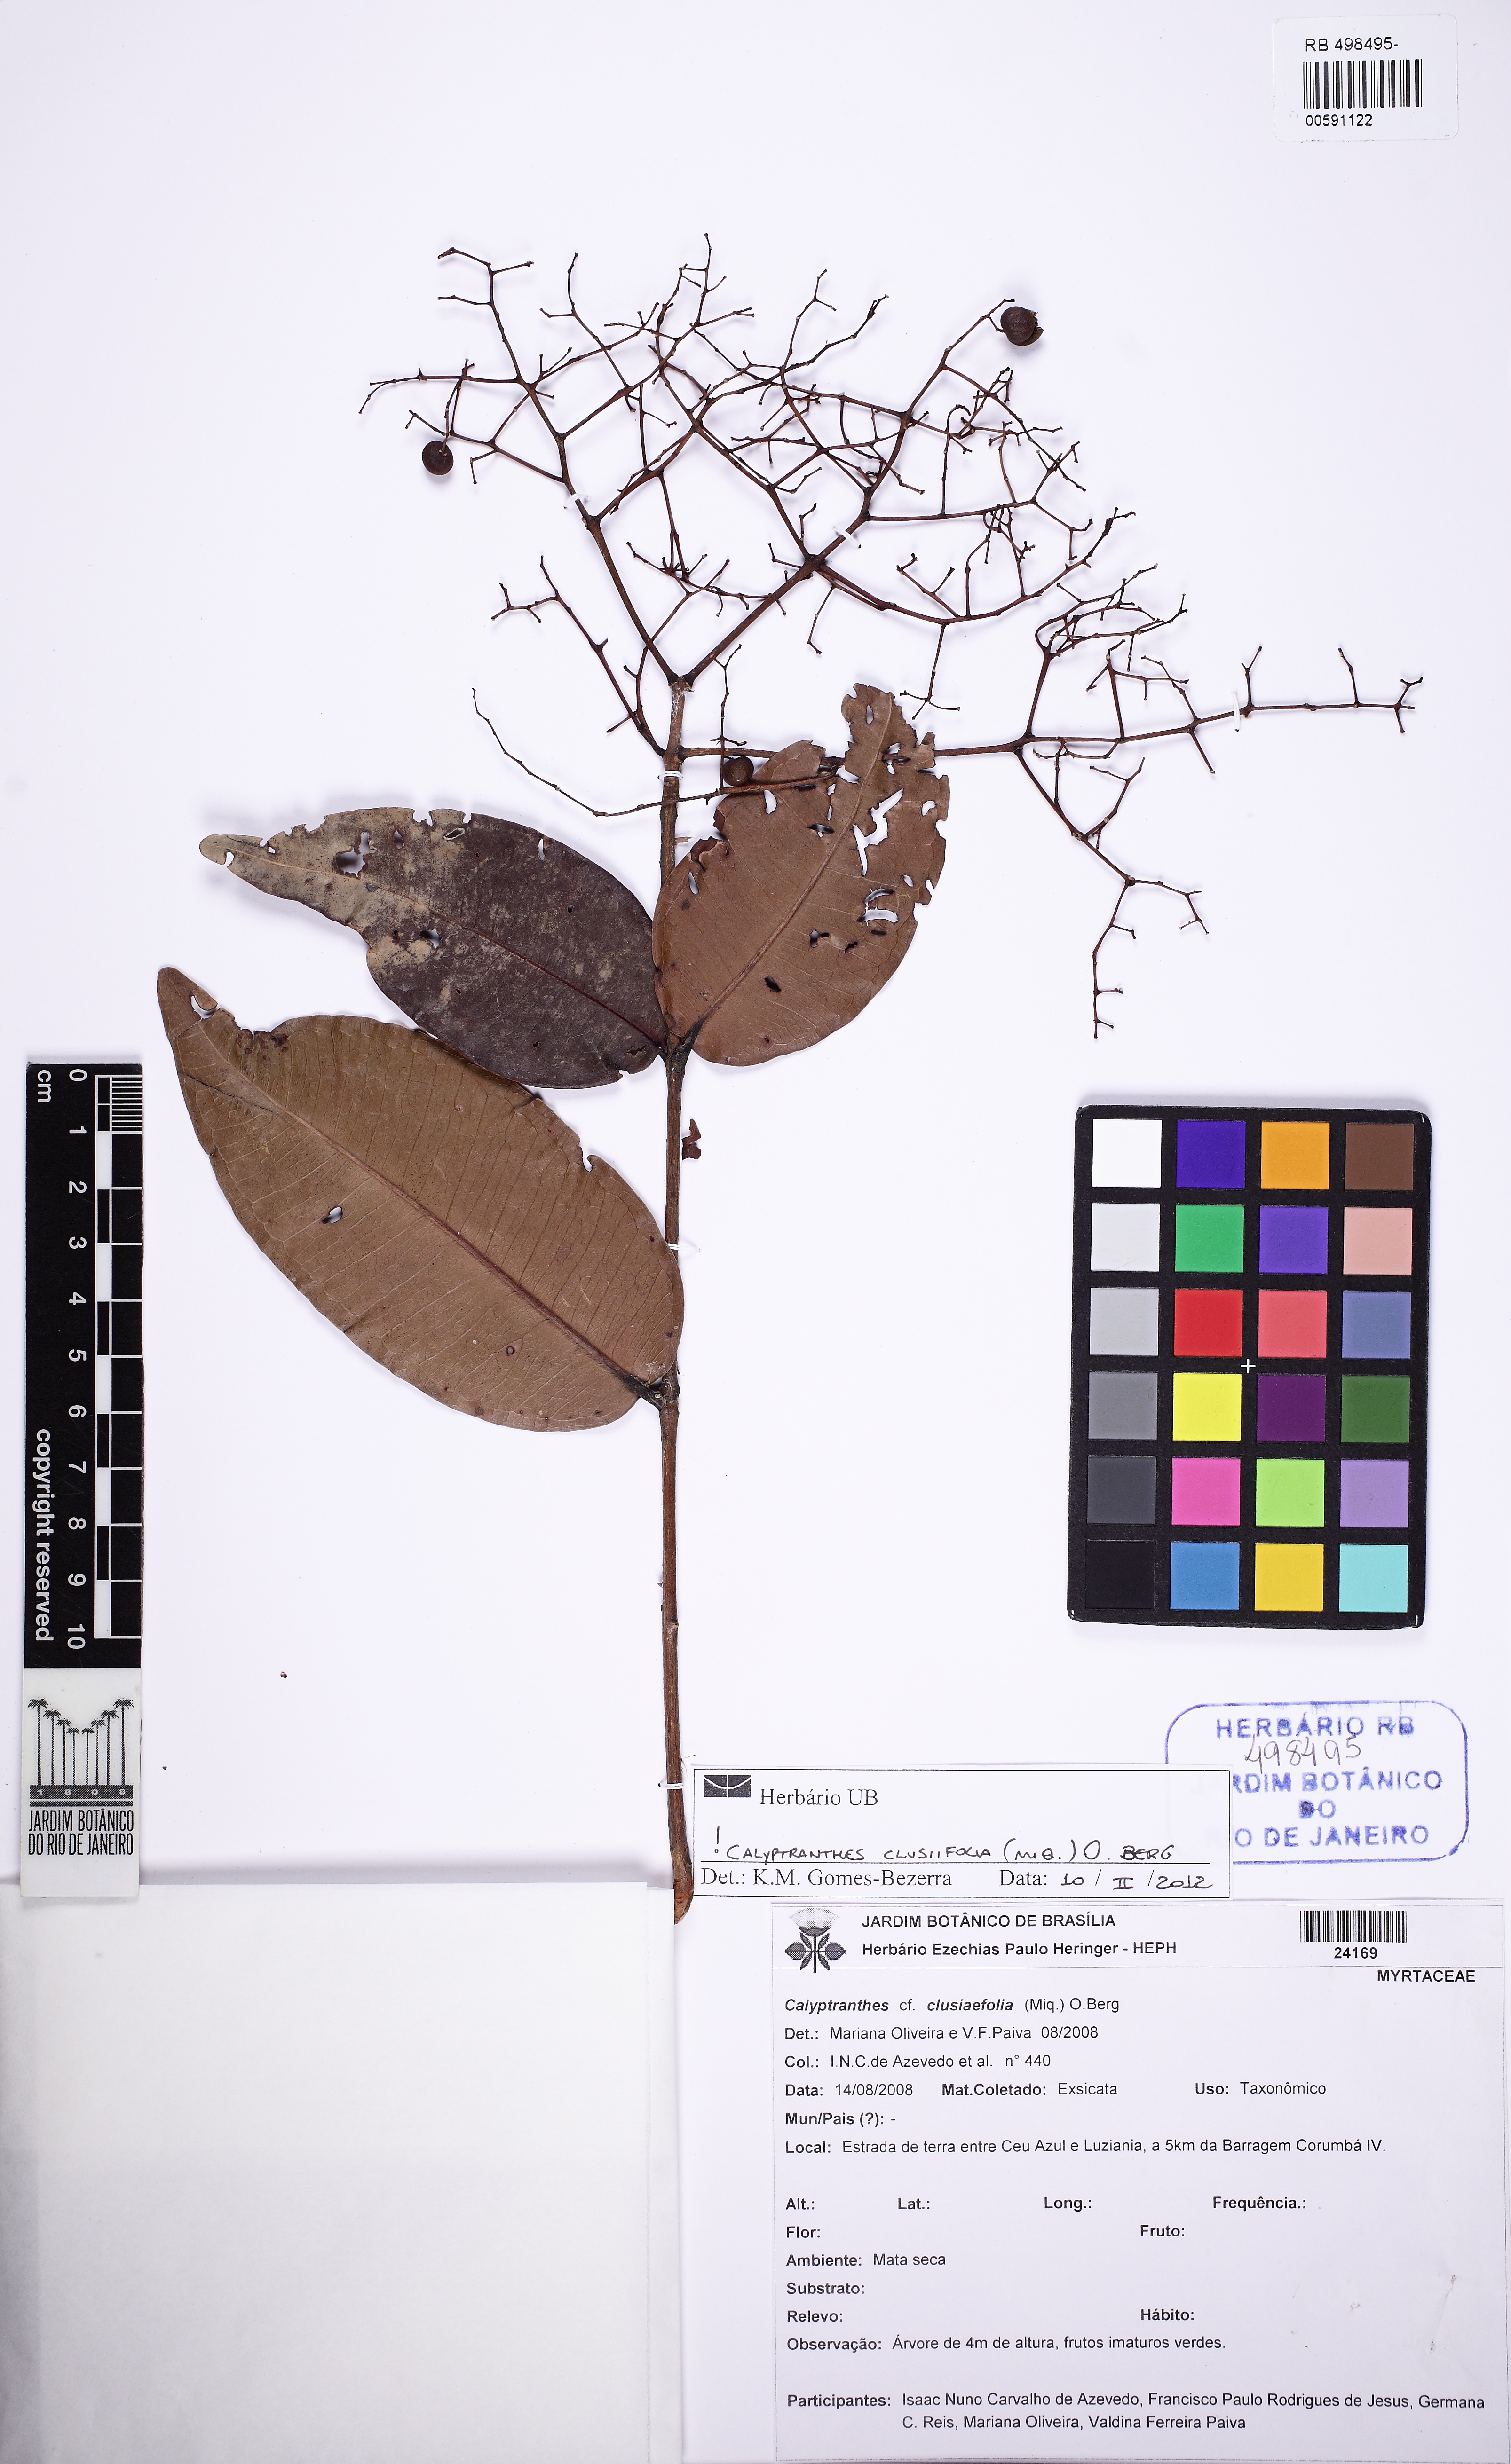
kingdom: Plantae
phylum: Tracheophyta
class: Magnoliopsida
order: Myrtales
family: Myrtaceae
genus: Myrcia
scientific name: Myrcia amazonica
